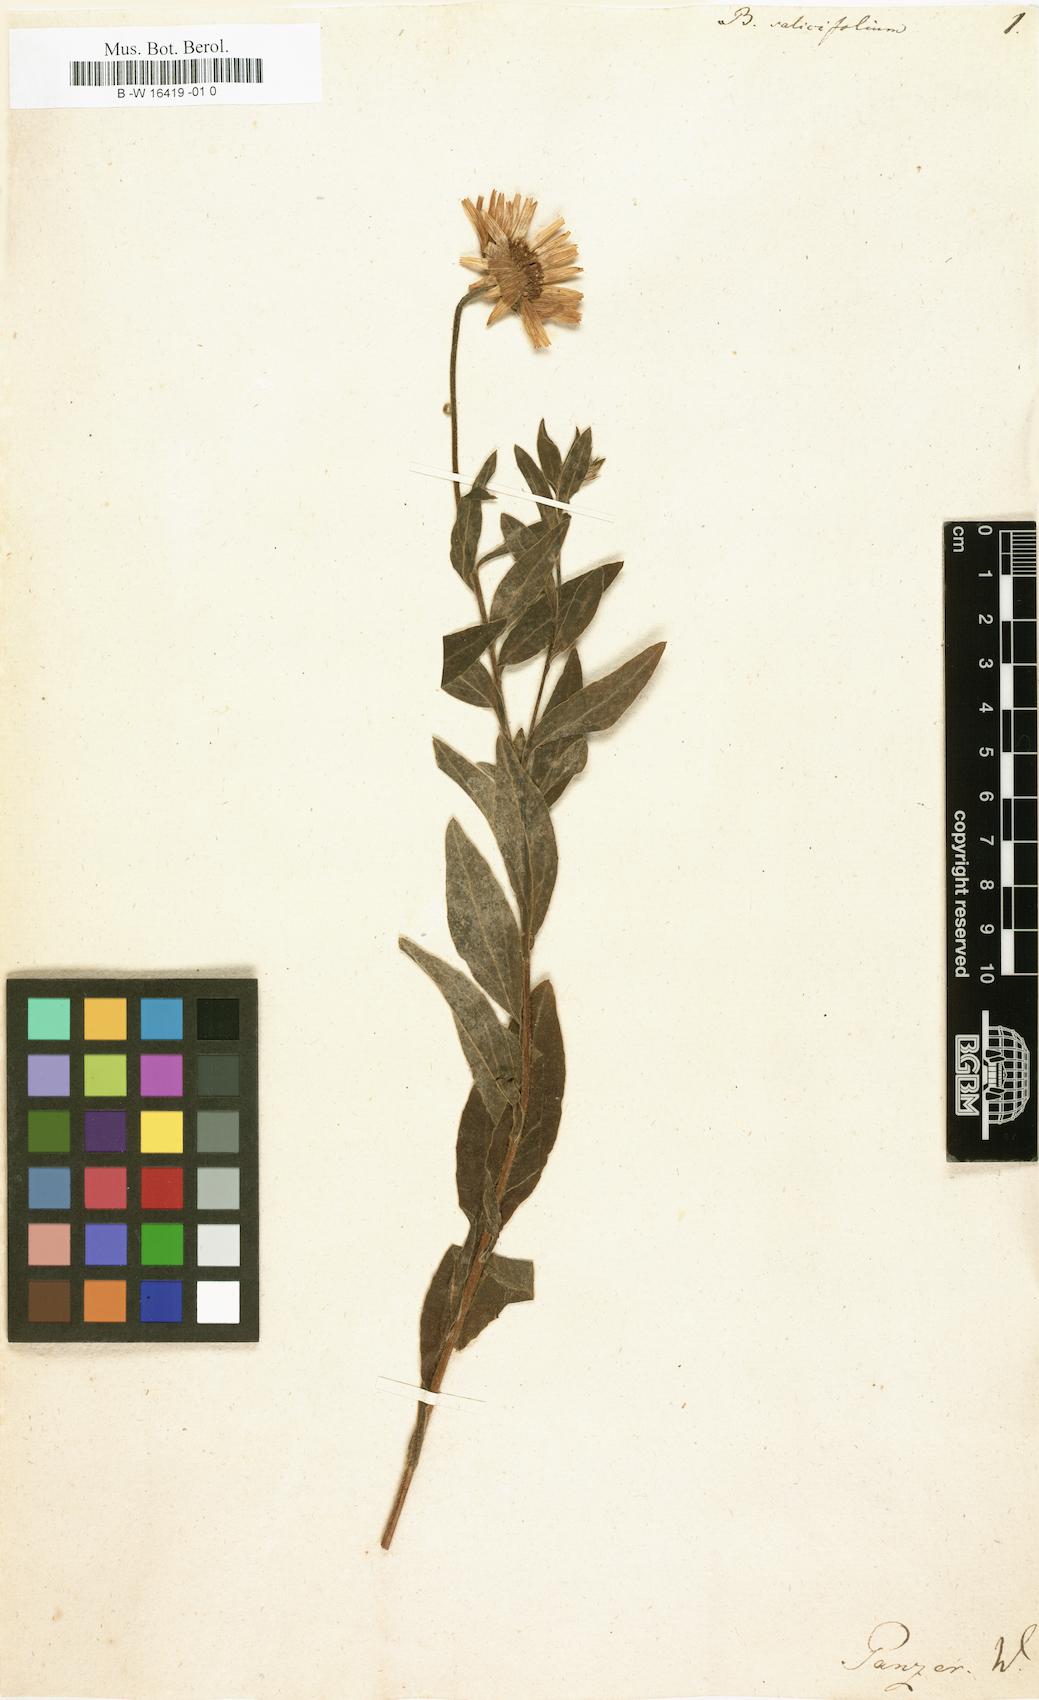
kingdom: Plantae
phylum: Tracheophyta
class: Magnoliopsida
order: Asterales
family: Asteraceae
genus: Buphthalmum
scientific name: Buphthalmum salicifolium
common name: Willow-leaved yellow-oxeye
